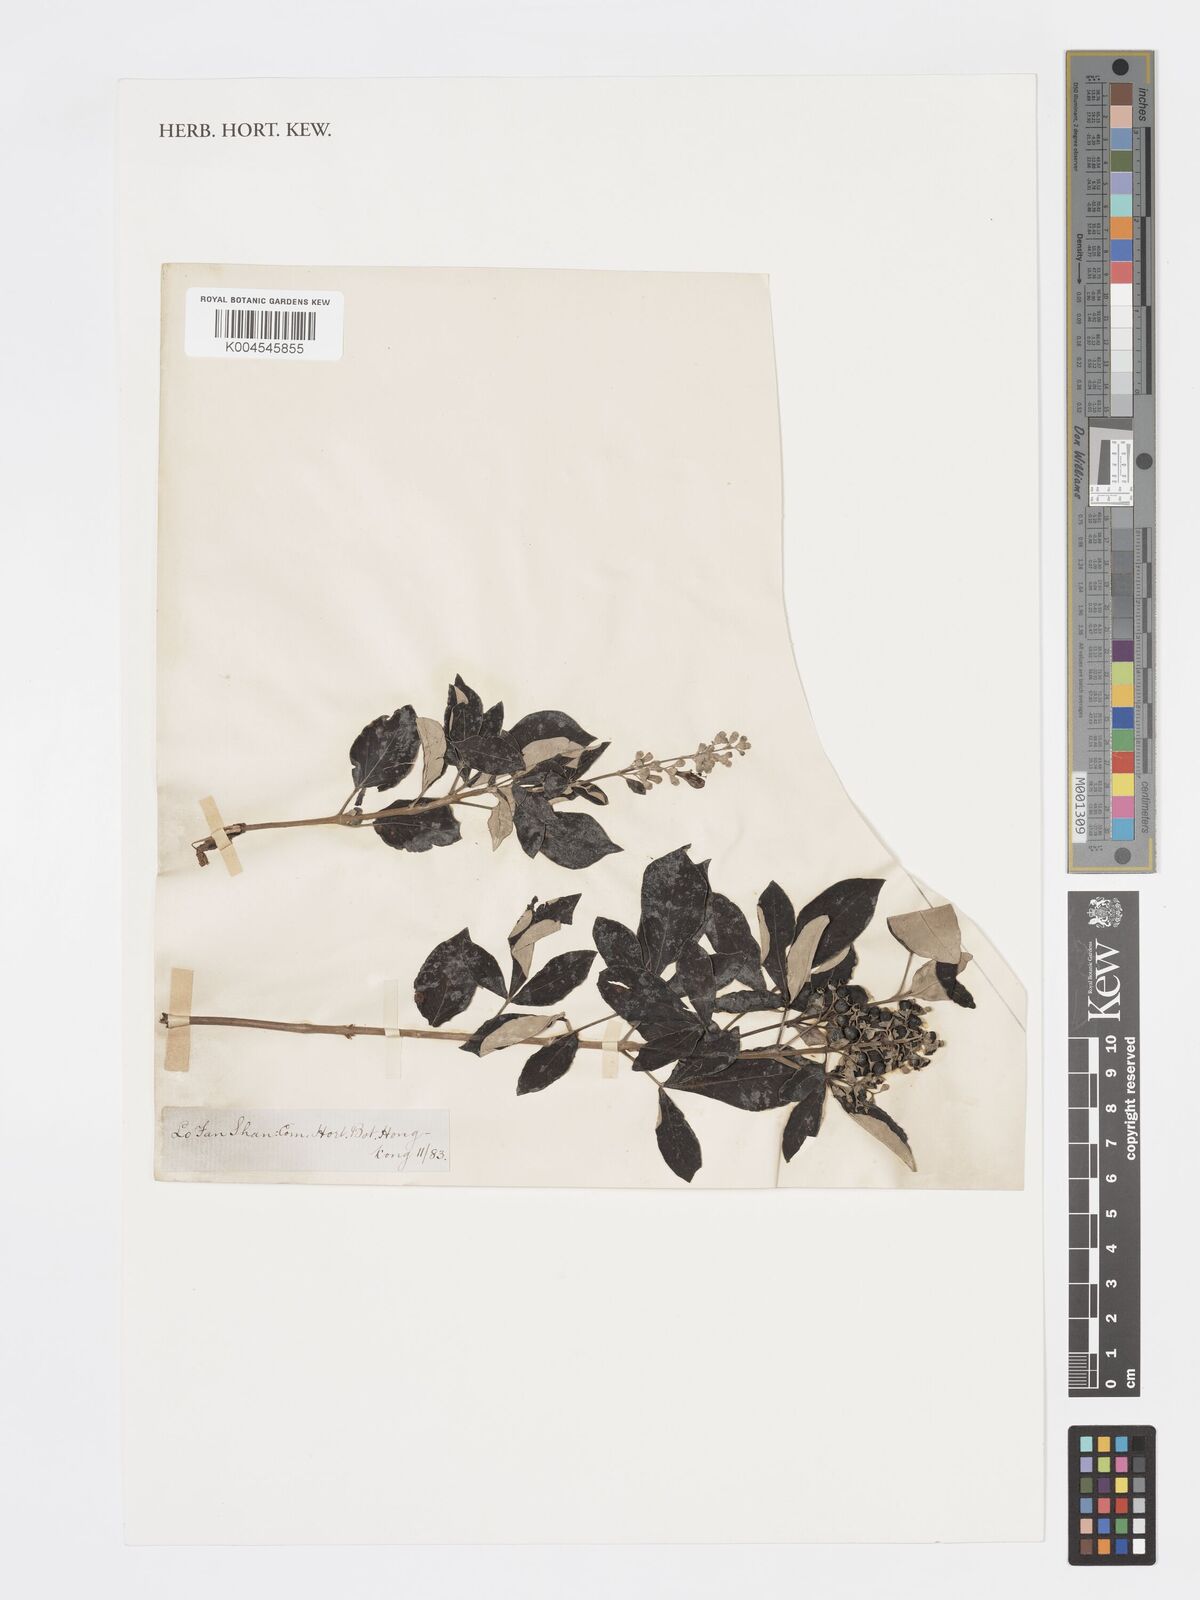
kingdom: Plantae
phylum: Tracheophyta
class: Magnoliopsida
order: Lamiales
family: Lamiaceae
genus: Vitex
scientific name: Vitex triflora
